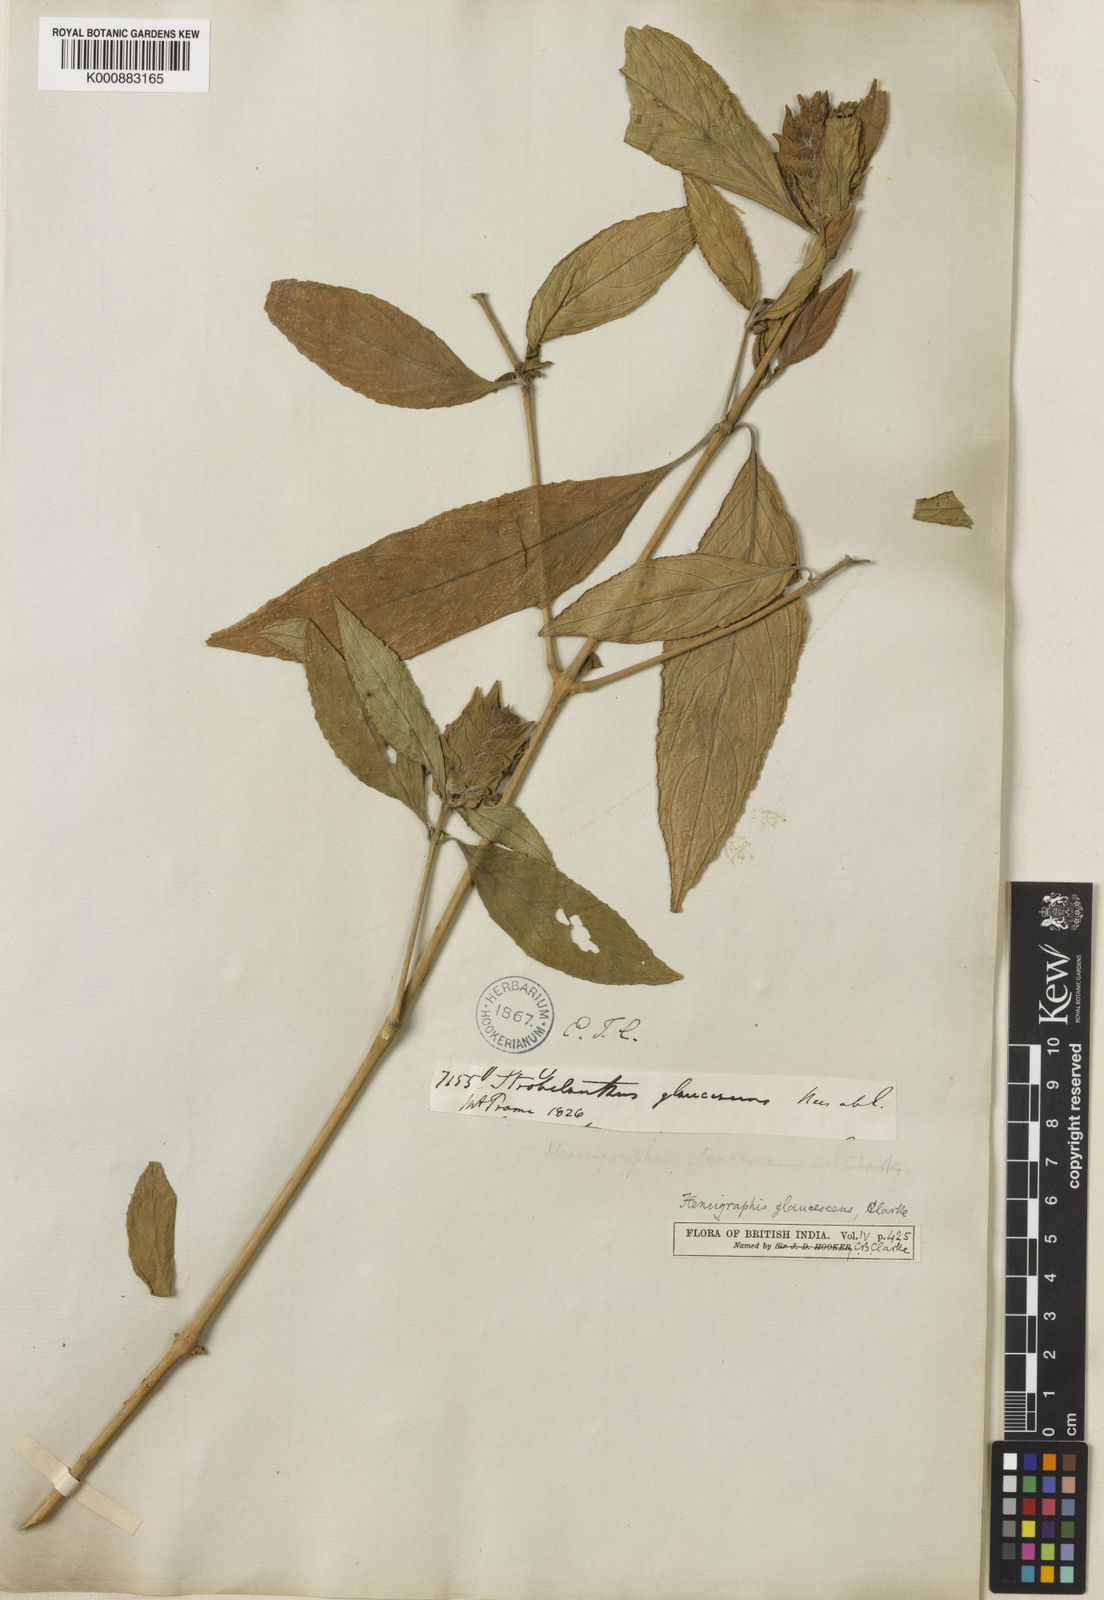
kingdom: Plantae
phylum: Tracheophyta
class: Magnoliopsida
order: Lamiales
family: Acanthaceae
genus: Strobilanthes
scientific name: Strobilanthes glaucescens
